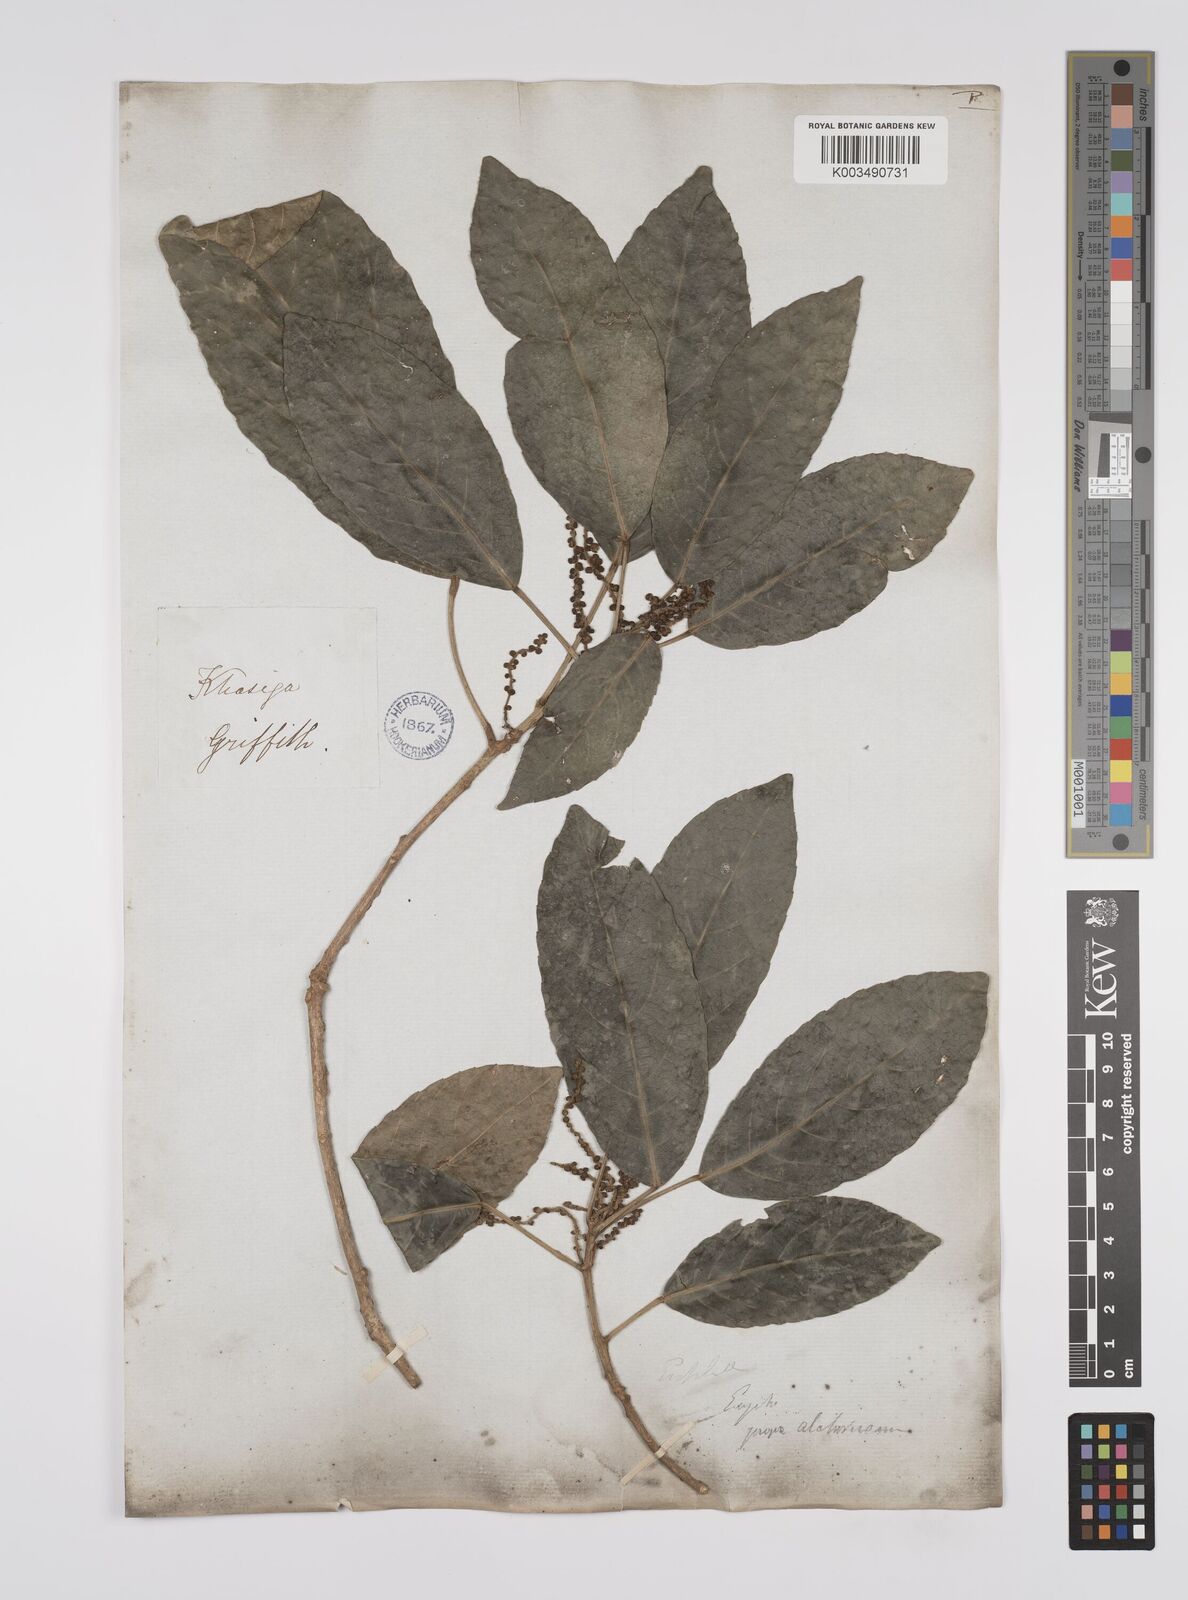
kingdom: Plantae
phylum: Tracheophyta
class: Magnoliopsida
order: Malpighiales
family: Euphorbiaceae
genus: Acalypha
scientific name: Acalypha spiciflora
